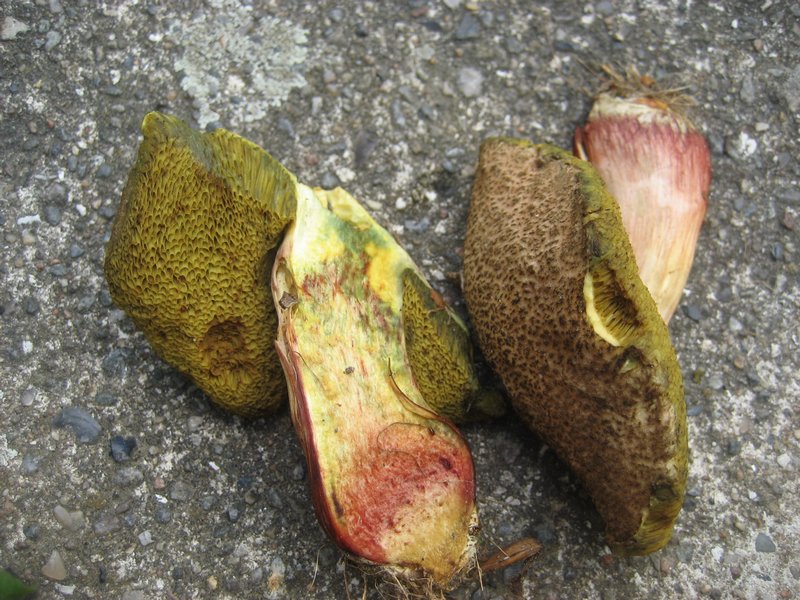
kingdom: Fungi
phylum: Basidiomycota
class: Agaricomycetes
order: Boletales
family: Boletaceae
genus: Xerocomellus
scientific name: Xerocomellus chrysenteron
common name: rødsprukken rørhat
